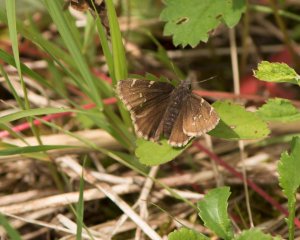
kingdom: Animalia
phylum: Arthropoda
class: Insecta
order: Lepidoptera
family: Hesperiidae
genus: Autochton
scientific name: Autochton
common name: Northern Cloudywing
